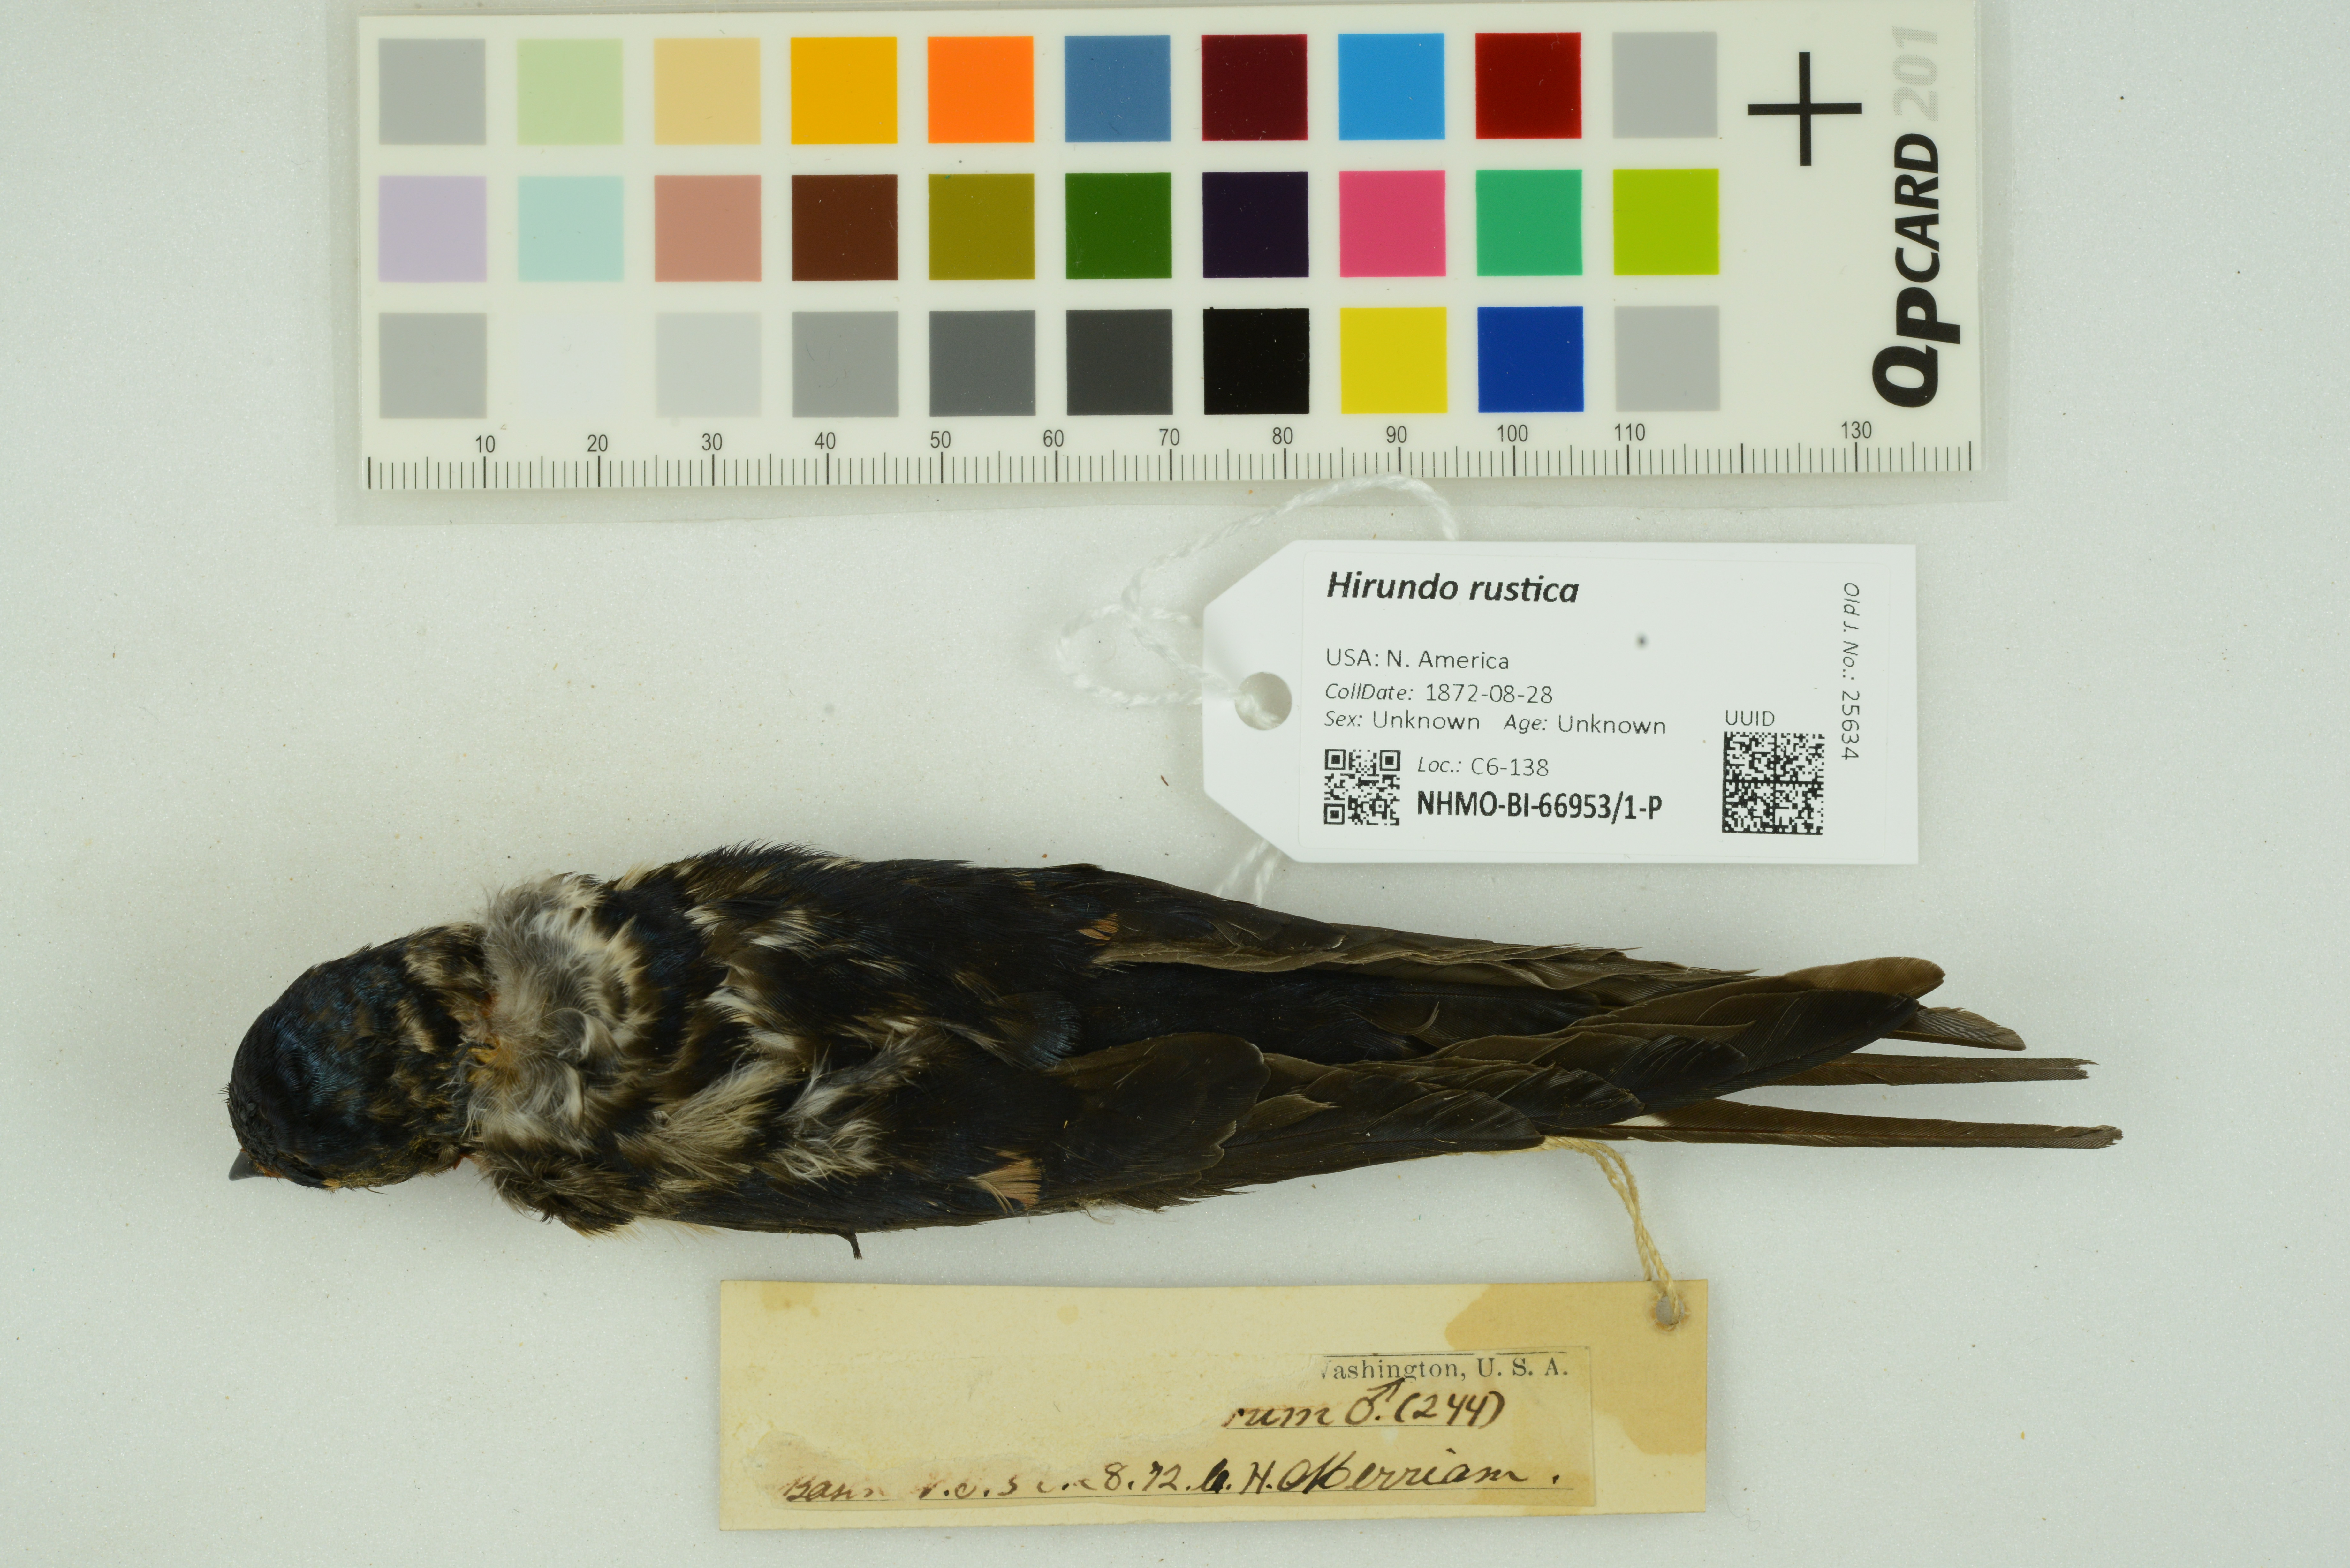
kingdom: Animalia
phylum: Chordata
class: Aves
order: Passeriformes
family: Hirundinidae
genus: Hirundo
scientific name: Hirundo rustica
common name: Barn swallow
